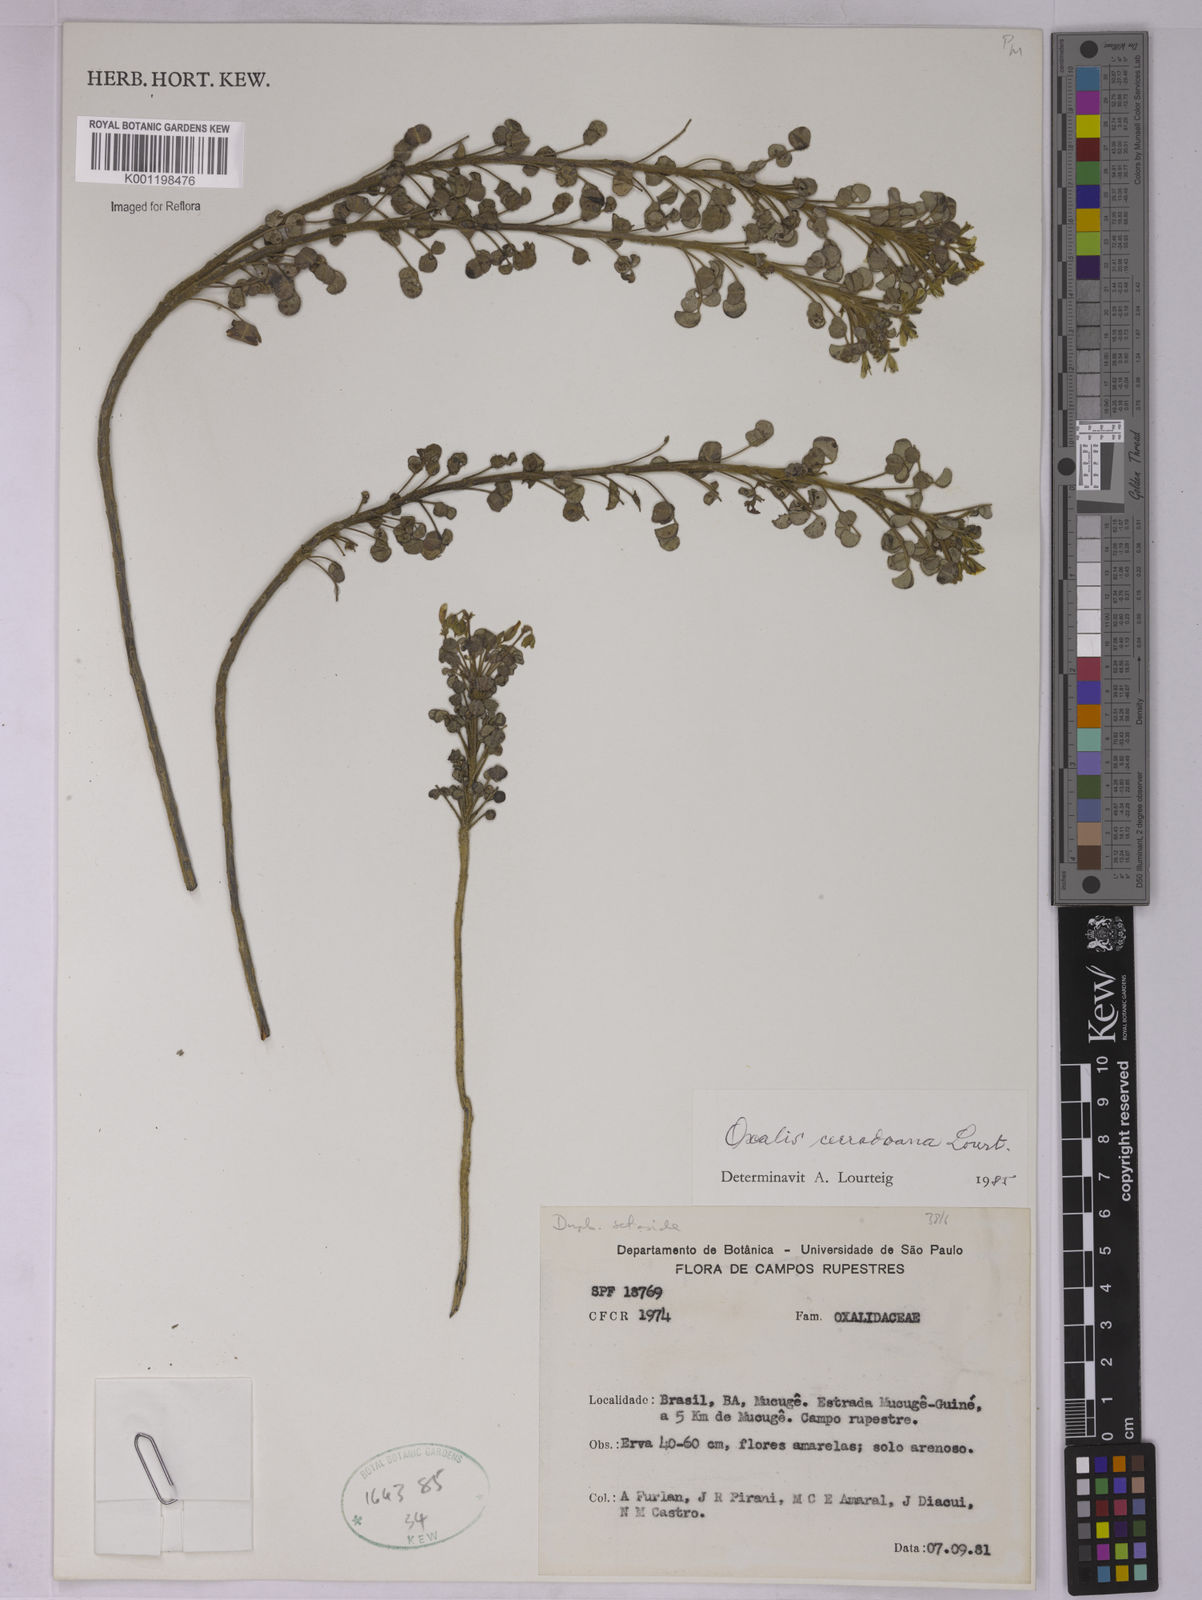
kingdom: Plantae
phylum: Tracheophyta
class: Magnoliopsida
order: Oxalidales
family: Oxalidaceae
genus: Oxalis
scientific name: Oxalis cerradoana
